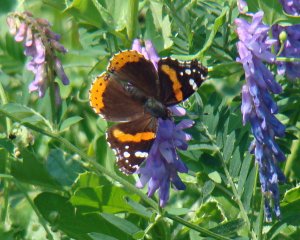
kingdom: Animalia
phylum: Arthropoda
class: Insecta
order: Lepidoptera
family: Nymphalidae
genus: Vanessa
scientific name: Vanessa atalanta
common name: Red Admiral
